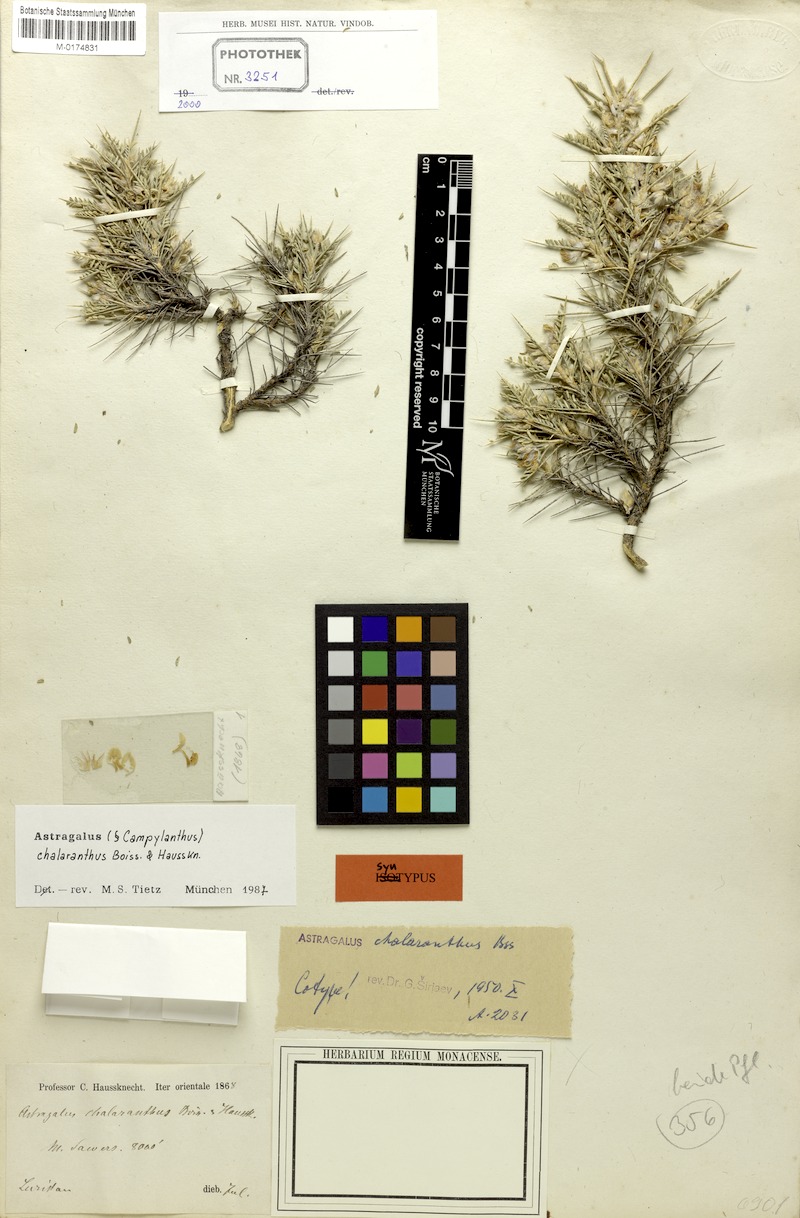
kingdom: Plantae
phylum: Tracheophyta
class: Magnoliopsida
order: Fabales
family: Fabaceae
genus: Astragalus
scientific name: Astragalus chalaranthus
